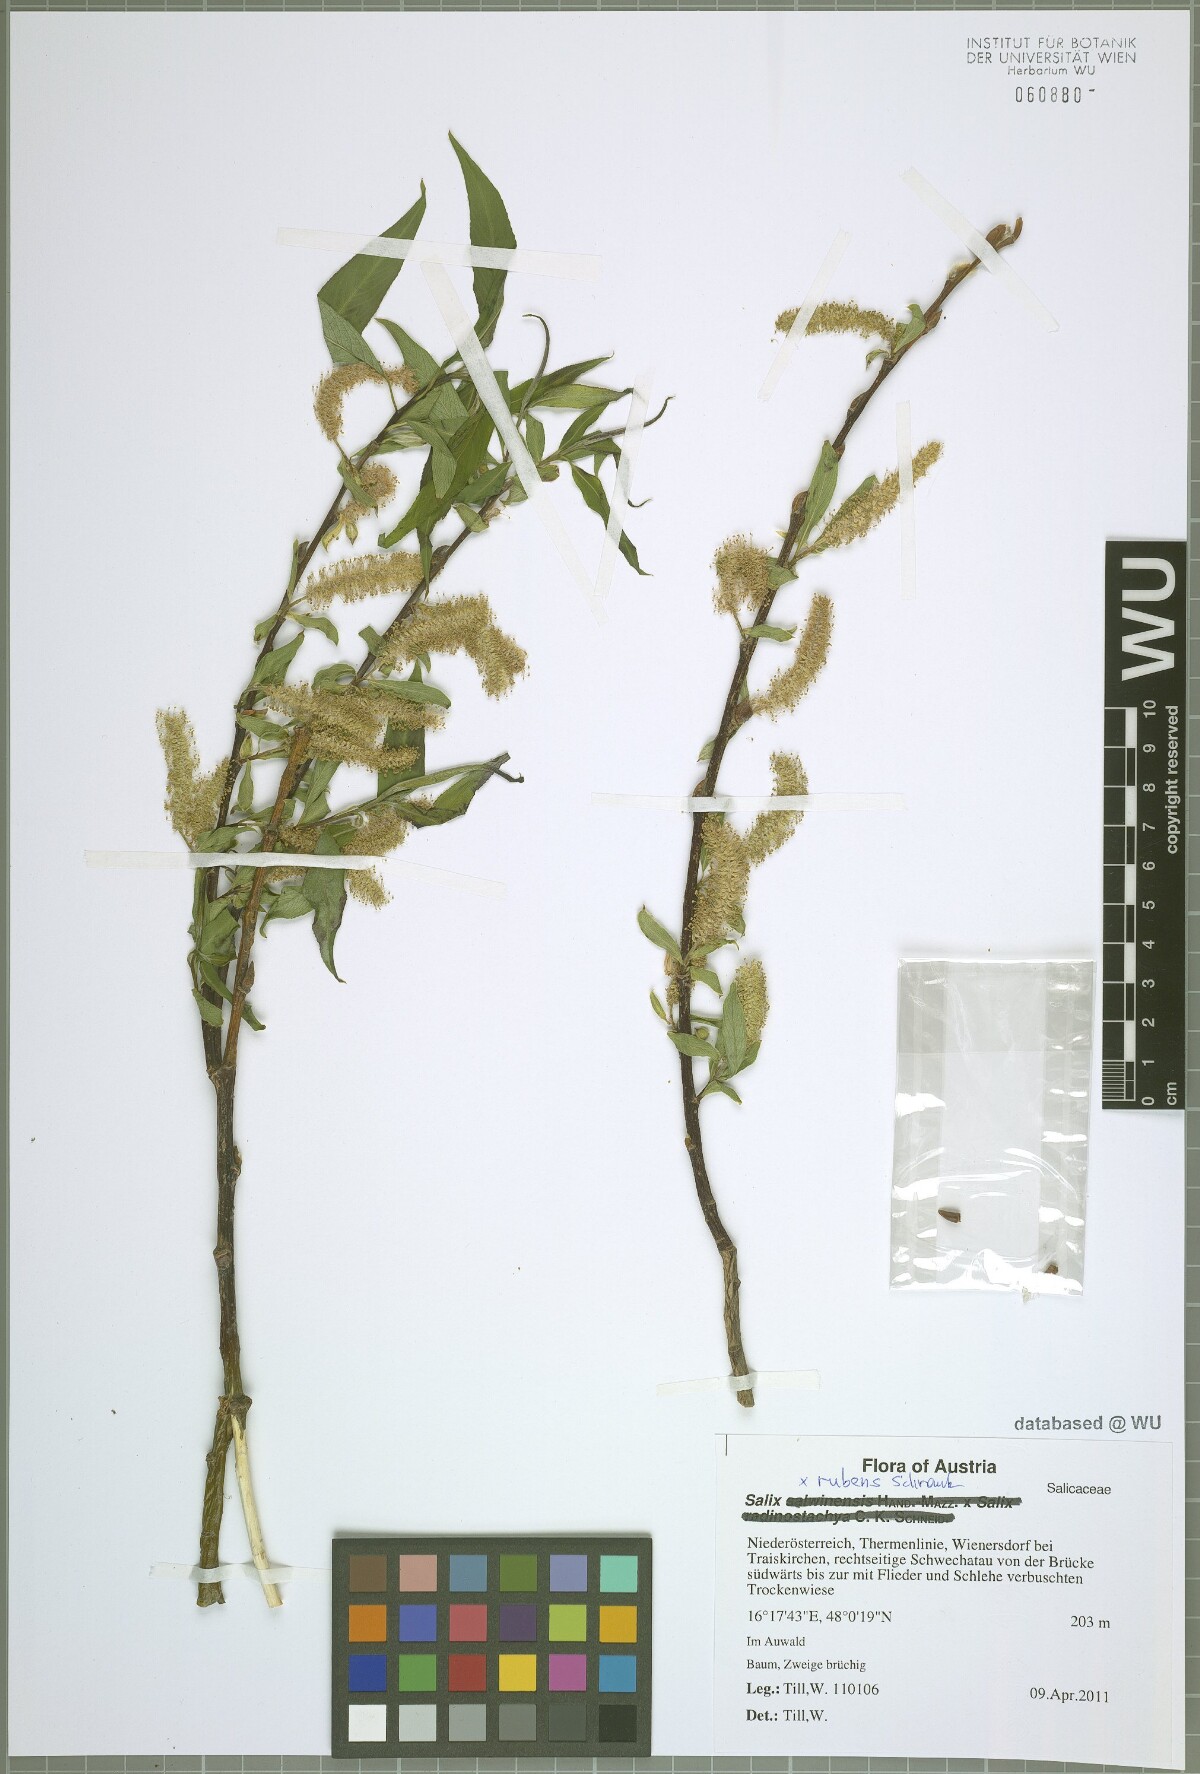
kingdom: Plantae
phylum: Tracheophyta
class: Magnoliopsida
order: Malpighiales
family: Salicaceae
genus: Salix
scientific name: Salix rubens
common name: Hybrid crack willow
